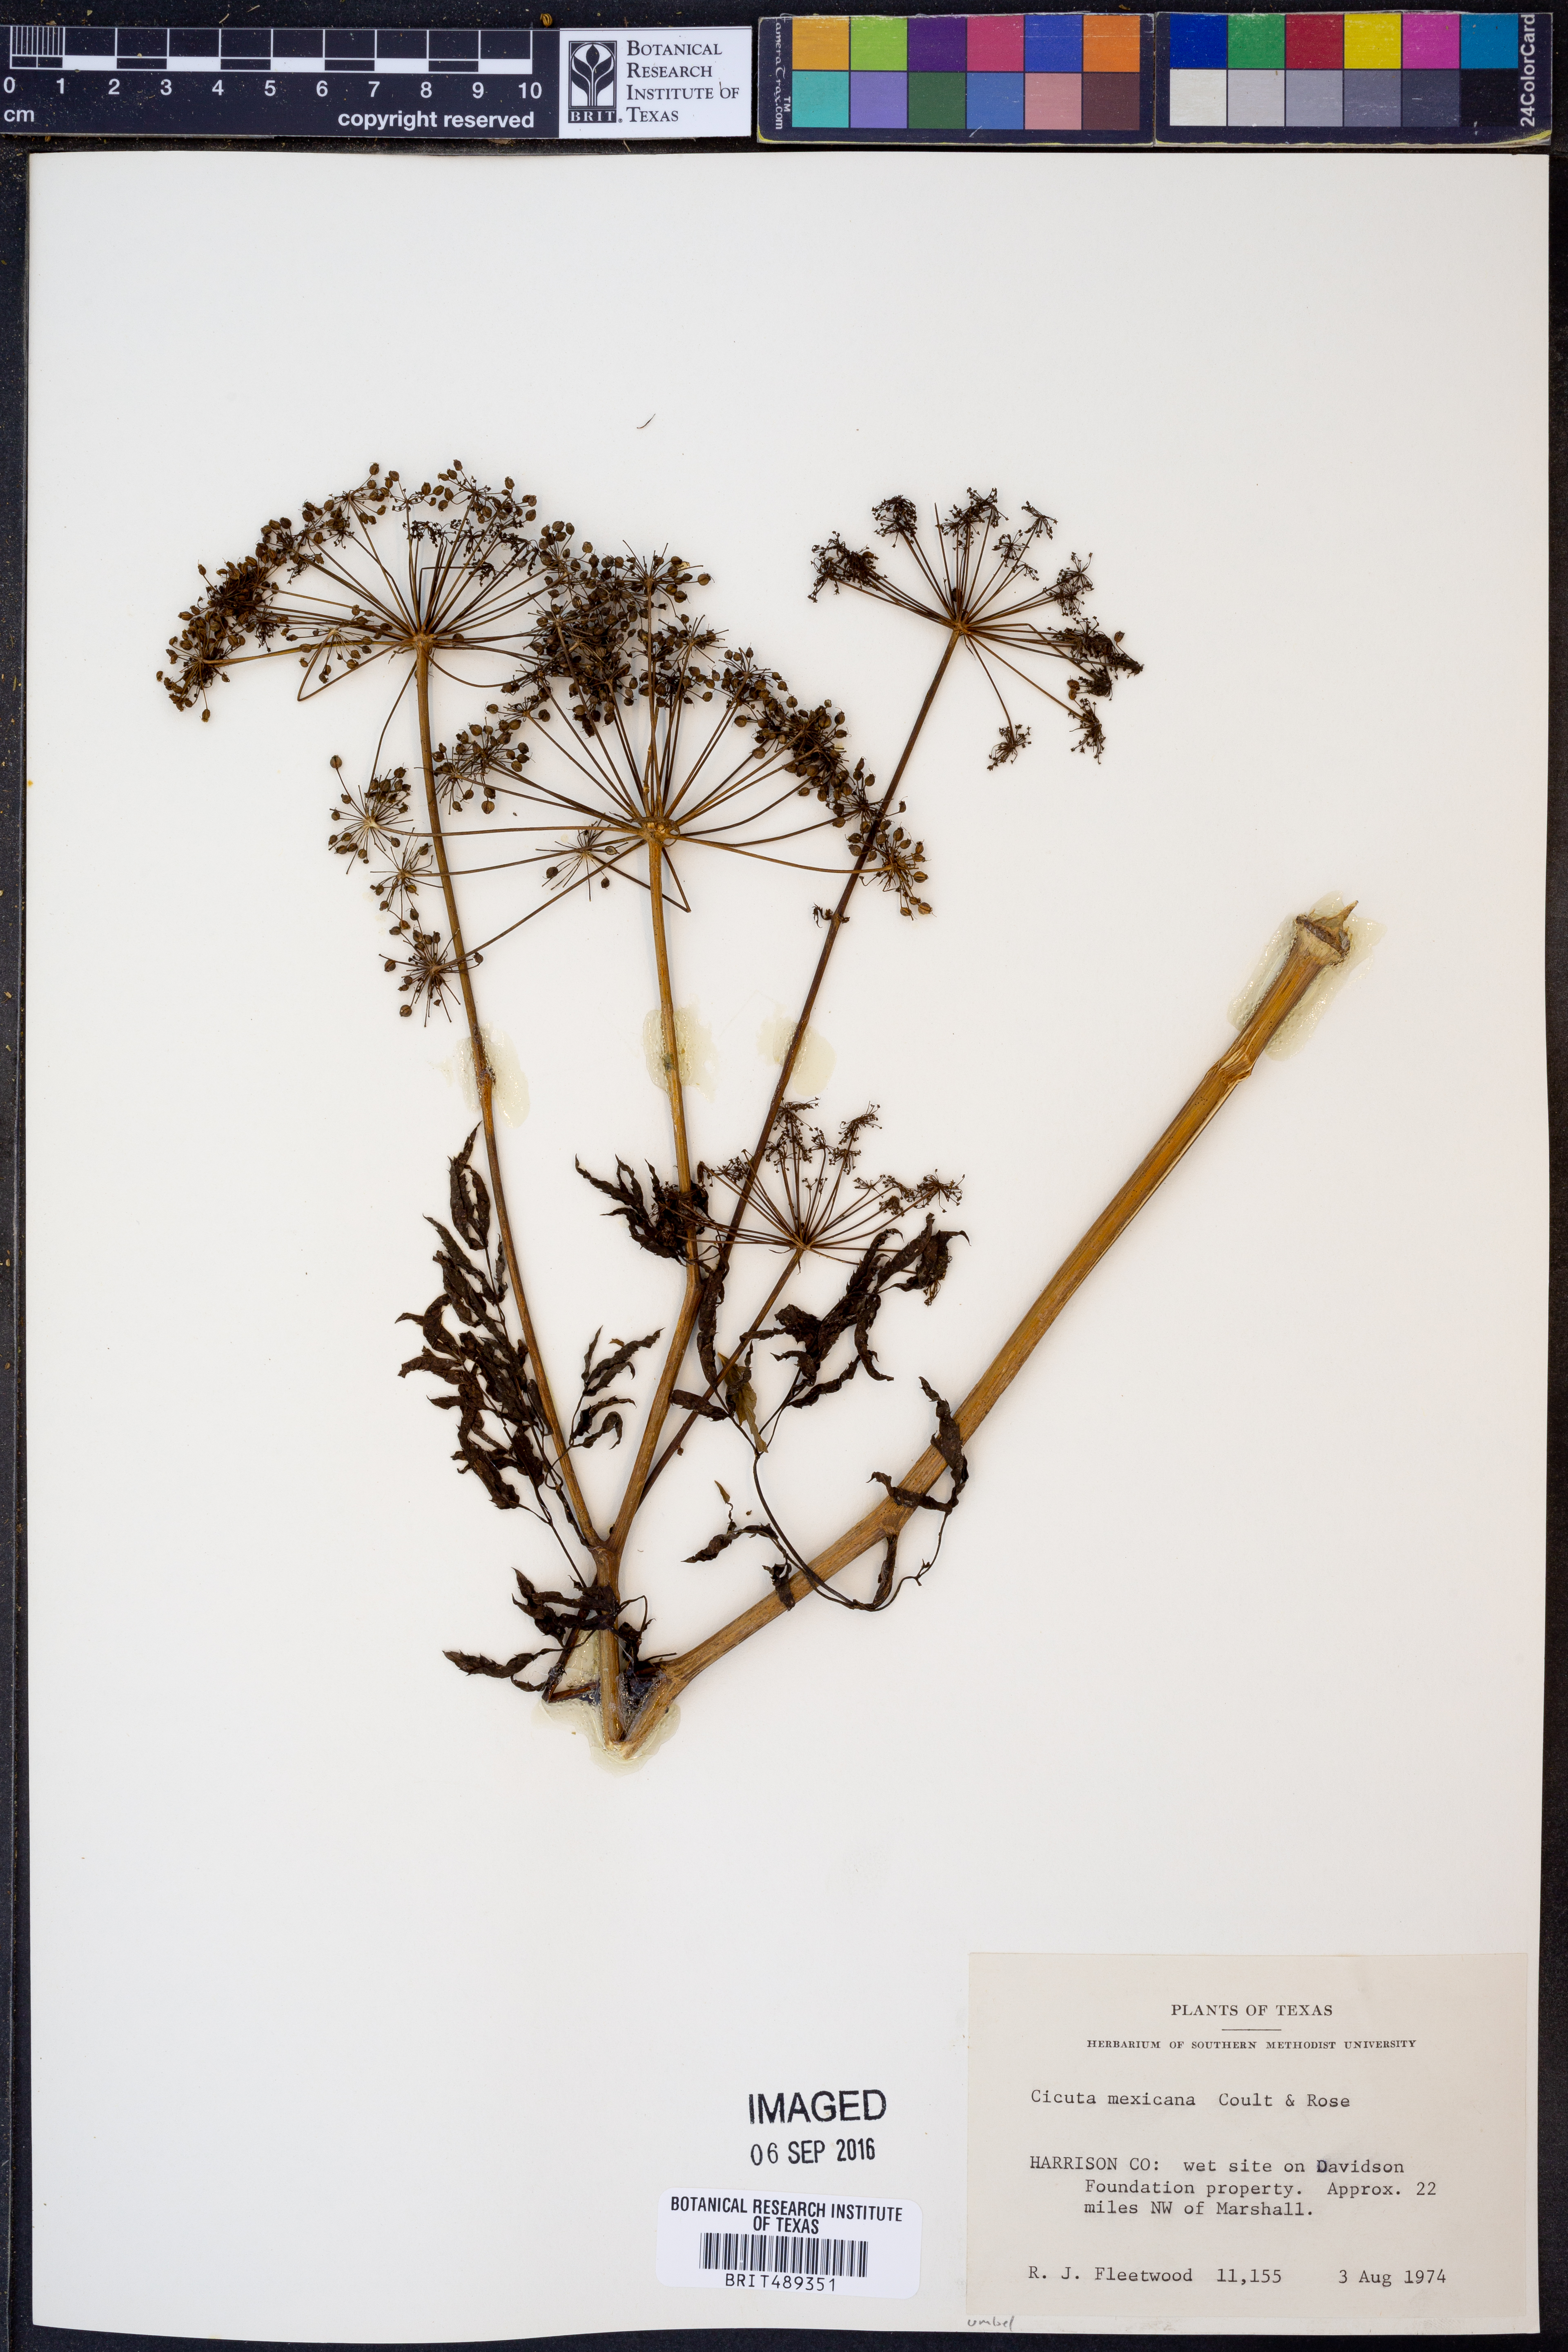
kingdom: Plantae
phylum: Tracheophyta
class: Magnoliopsida
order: Apiales
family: Apiaceae
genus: Cicuta
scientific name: Cicuta douglasii
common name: Western water-hemlock
